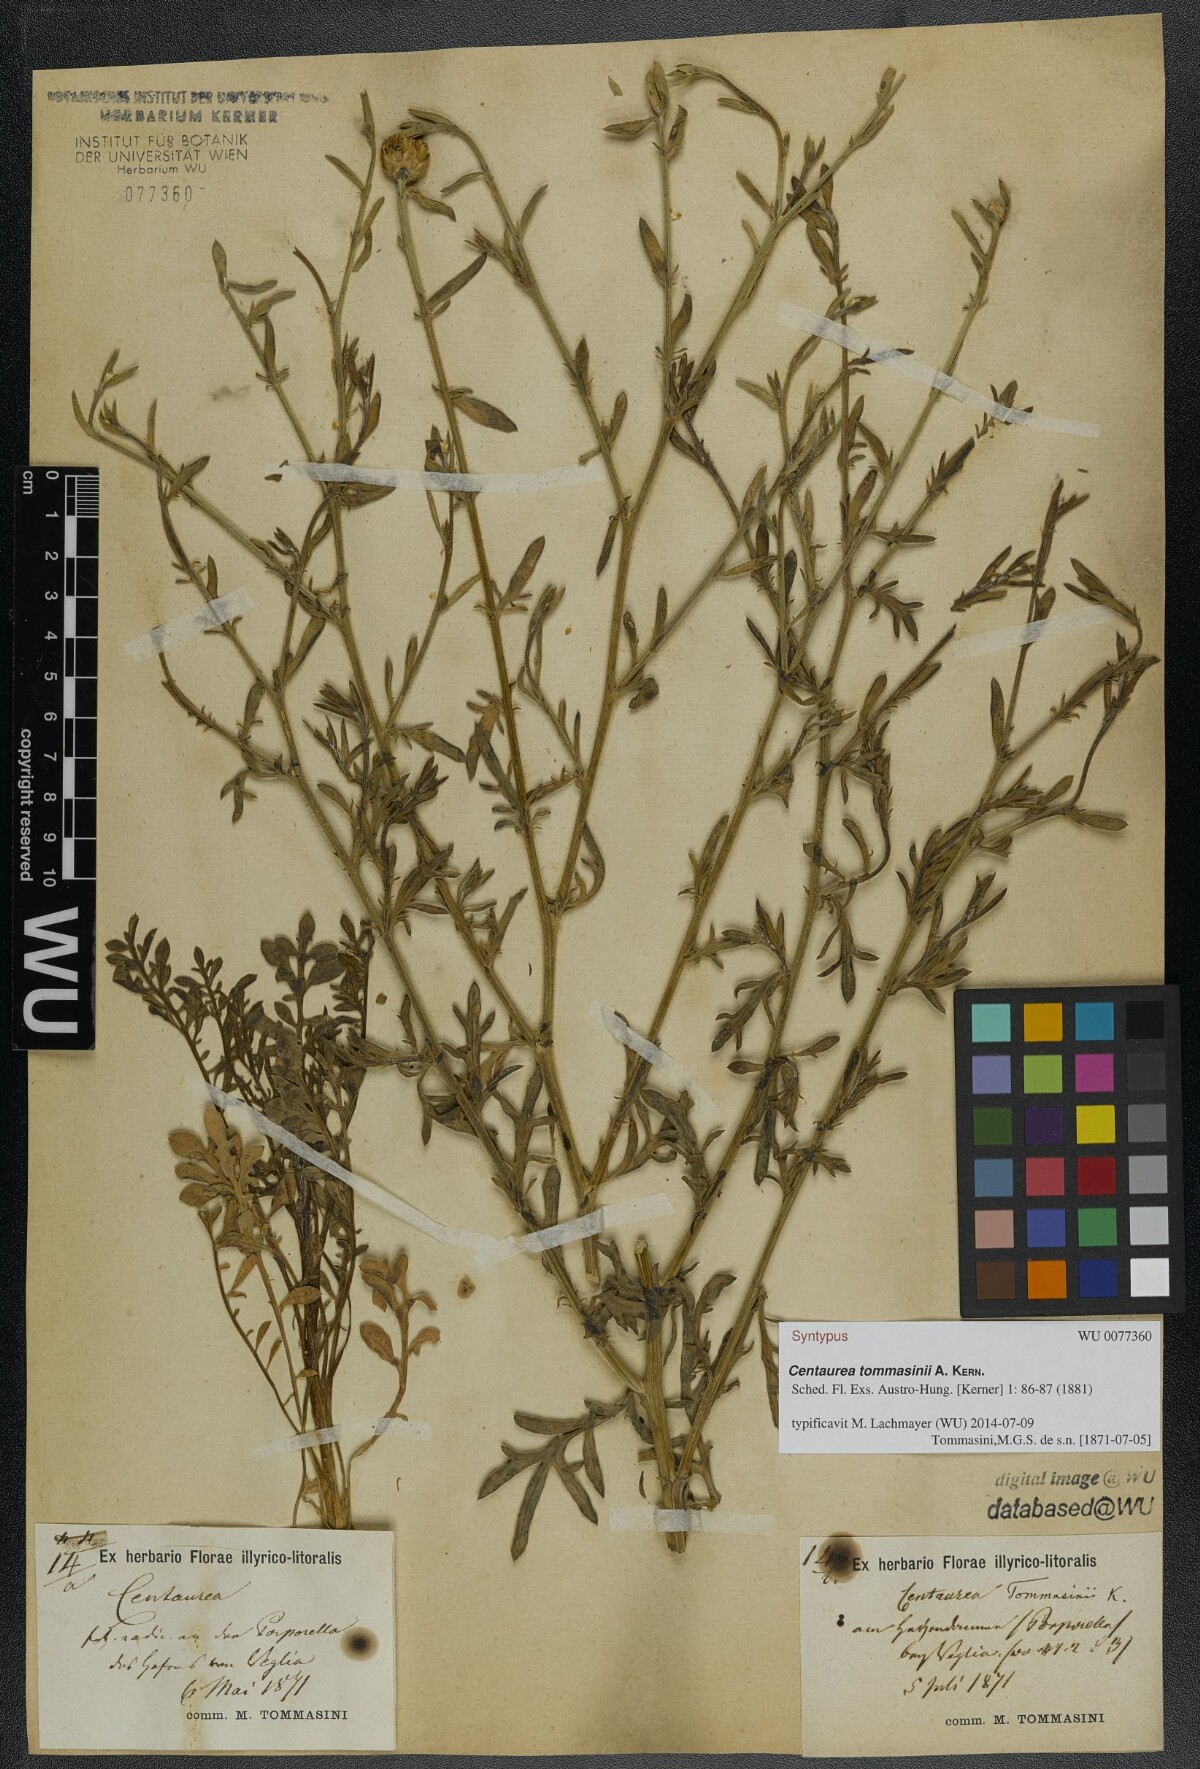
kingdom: Plantae
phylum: Tracheophyta
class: Magnoliopsida
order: Asterales
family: Asteraceae
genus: Centaurea
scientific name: Centaurea tommasinii
